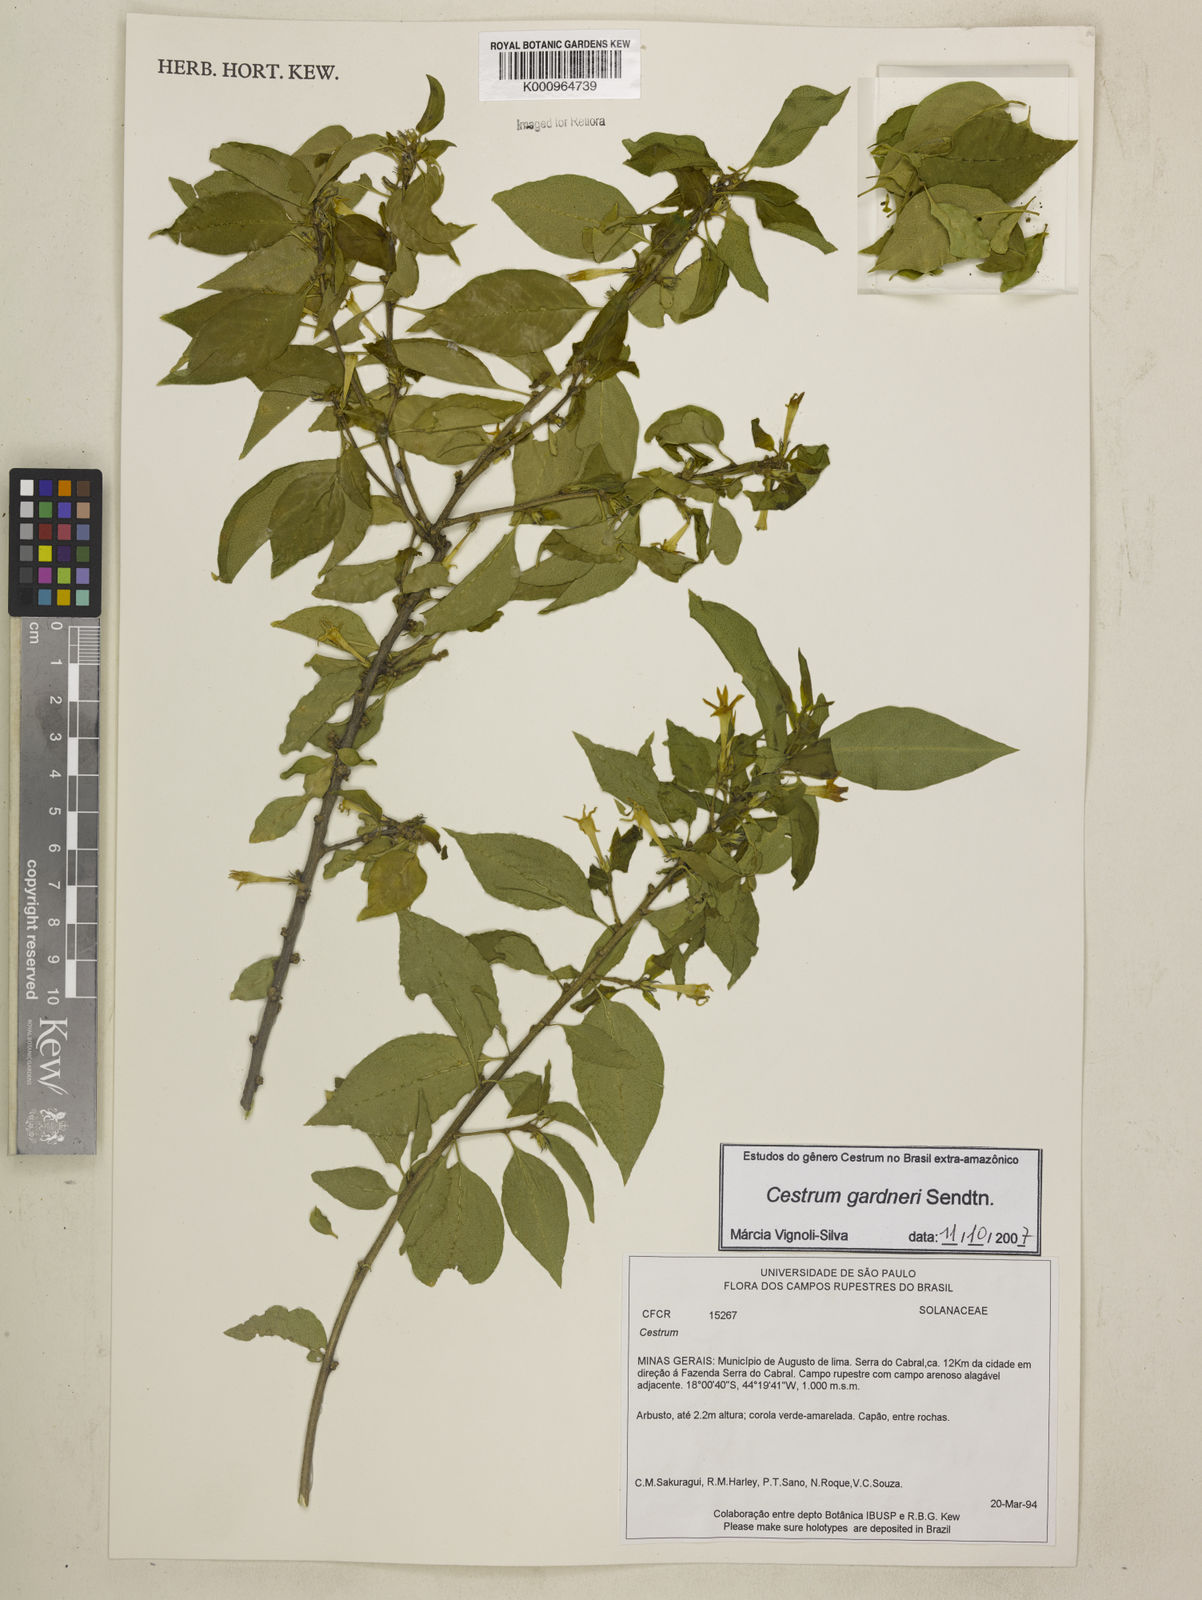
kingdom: Plantae
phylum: Tracheophyta
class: Magnoliopsida
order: Solanales
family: Solanaceae
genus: Cestrum
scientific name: Cestrum gardneri
